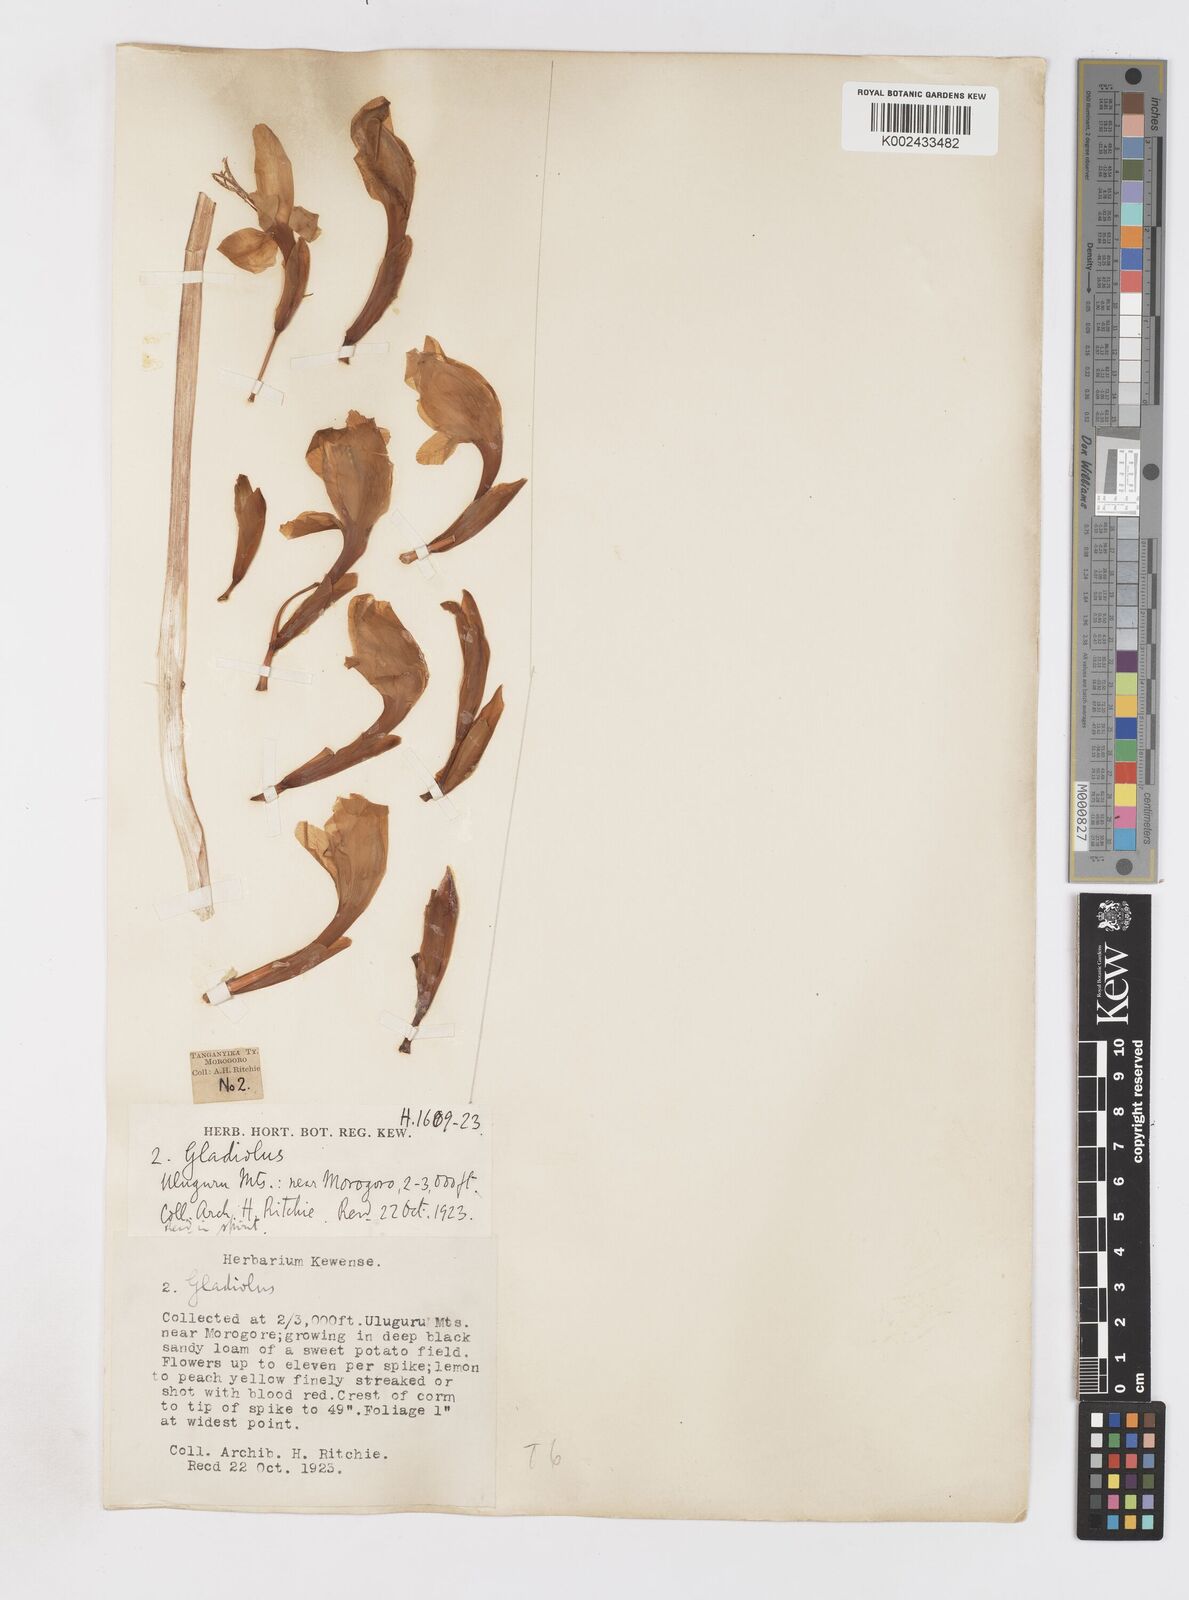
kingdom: Plantae
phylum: Tracheophyta
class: Liliopsida
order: Asparagales
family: Iridaceae
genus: Gladiolus
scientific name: Gladiolus dalenii
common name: Cornflag
